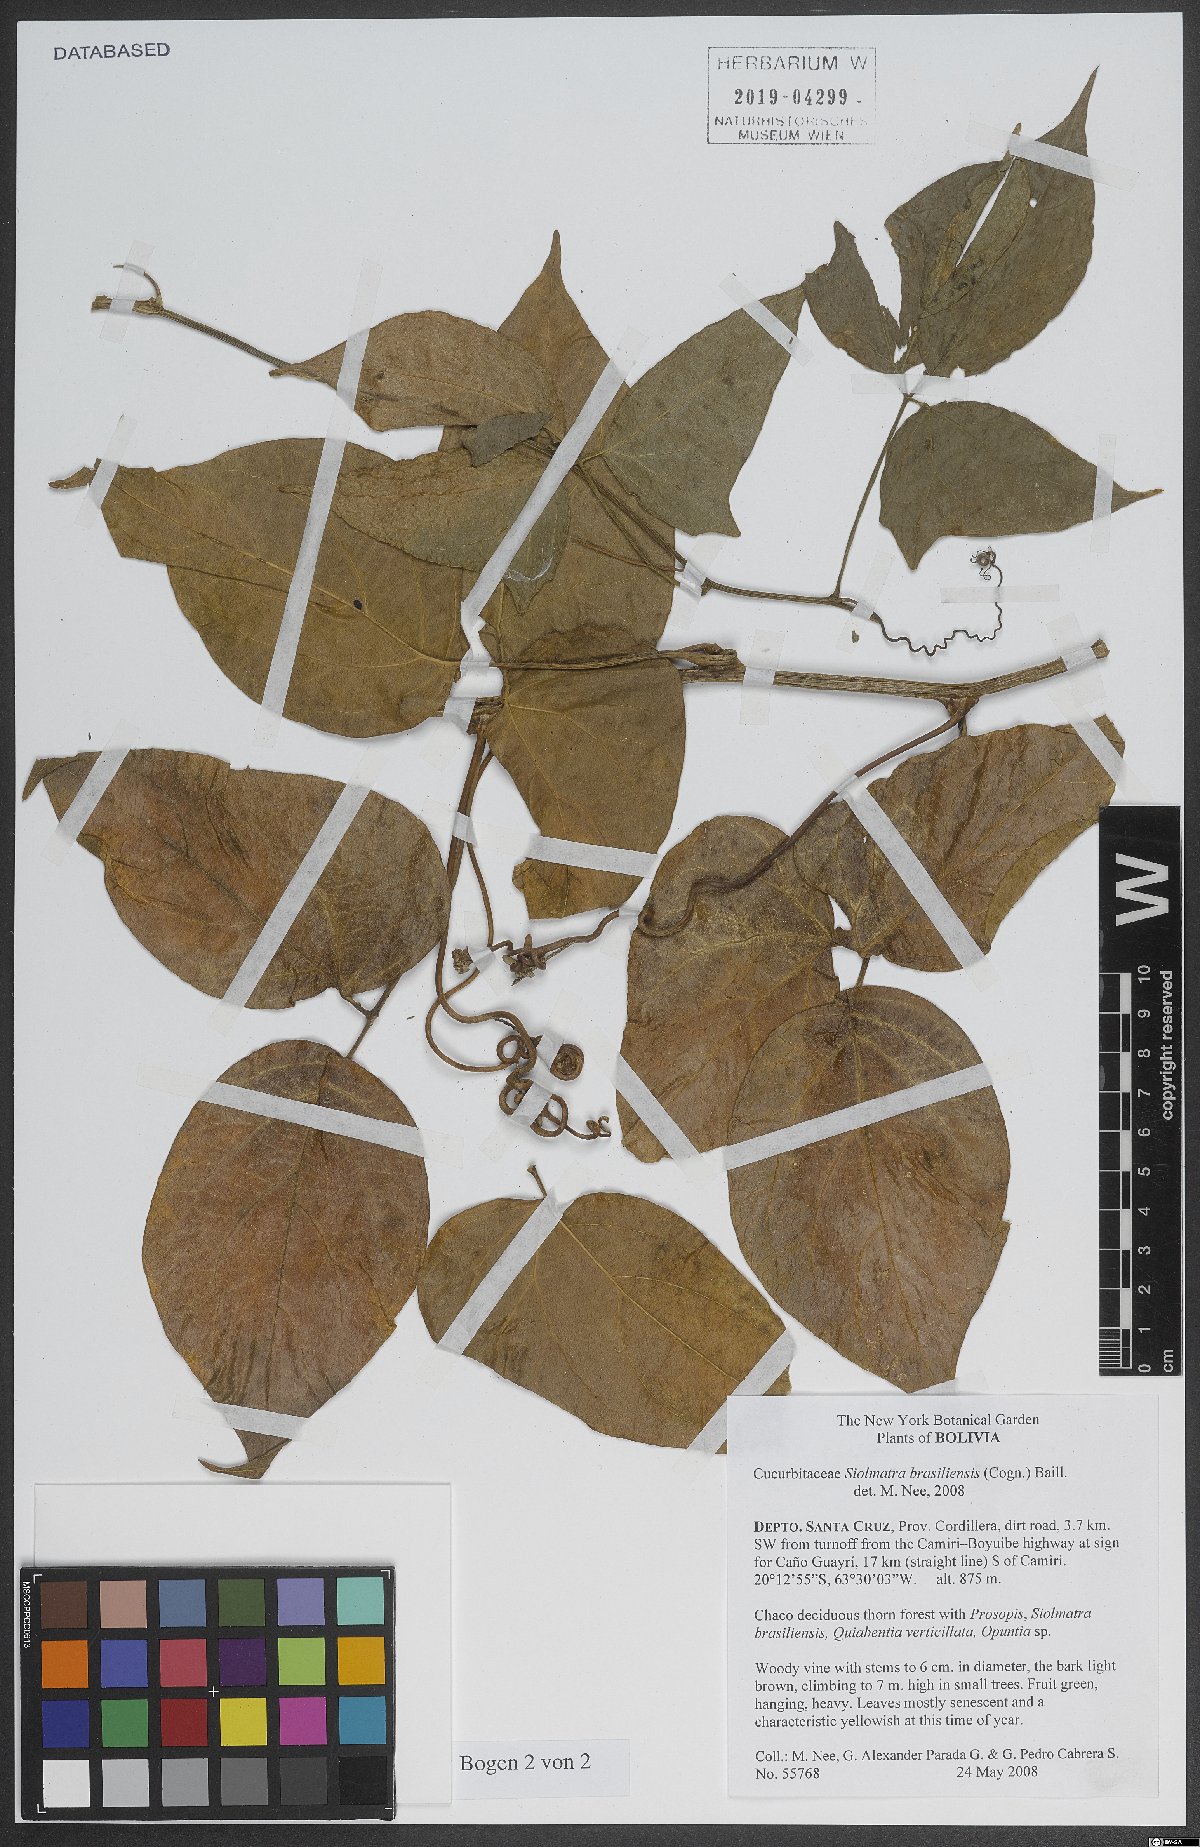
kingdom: Plantae
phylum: Tracheophyta
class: Magnoliopsida
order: Cucurbitales
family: Cucurbitaceae
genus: Siolmatra
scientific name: Siolmatra brasiliensis
